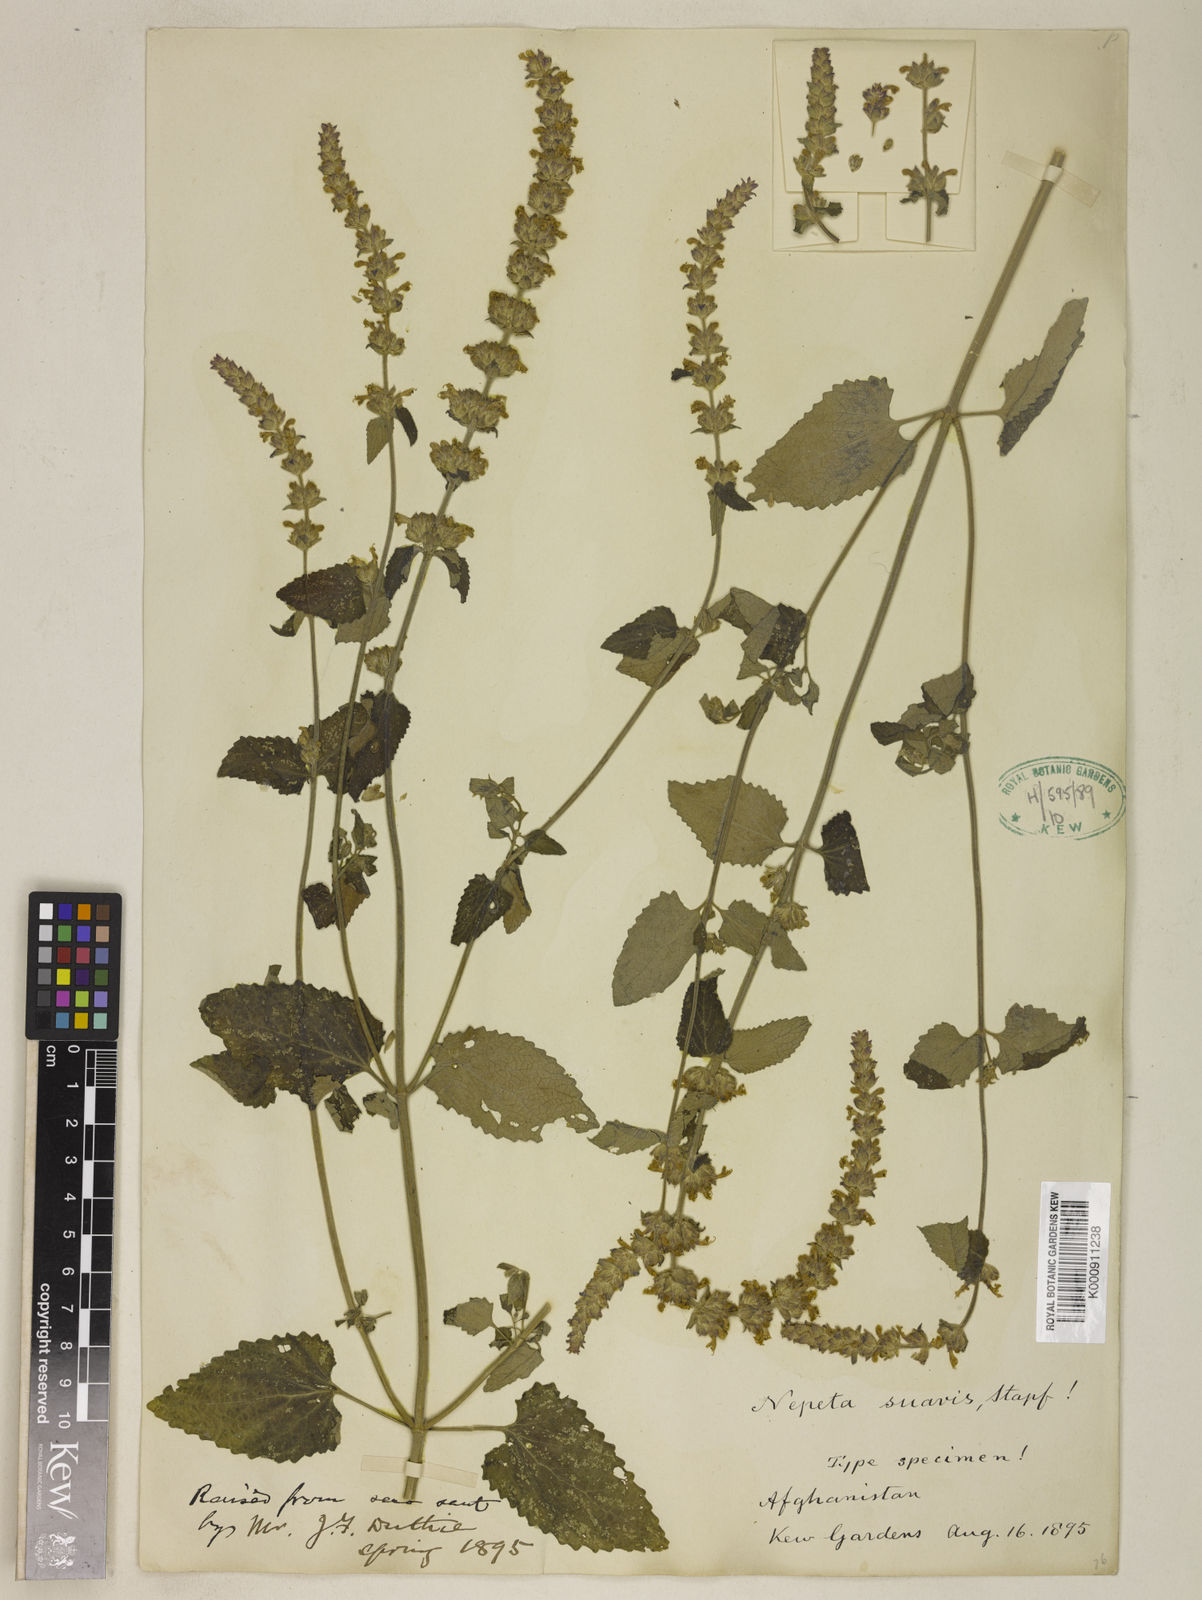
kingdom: Plantae
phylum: Tracheophyta
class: Magnoliopsida
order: Lamiales
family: Lamiaceae
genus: Nepeta
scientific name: Nepeta suavis
